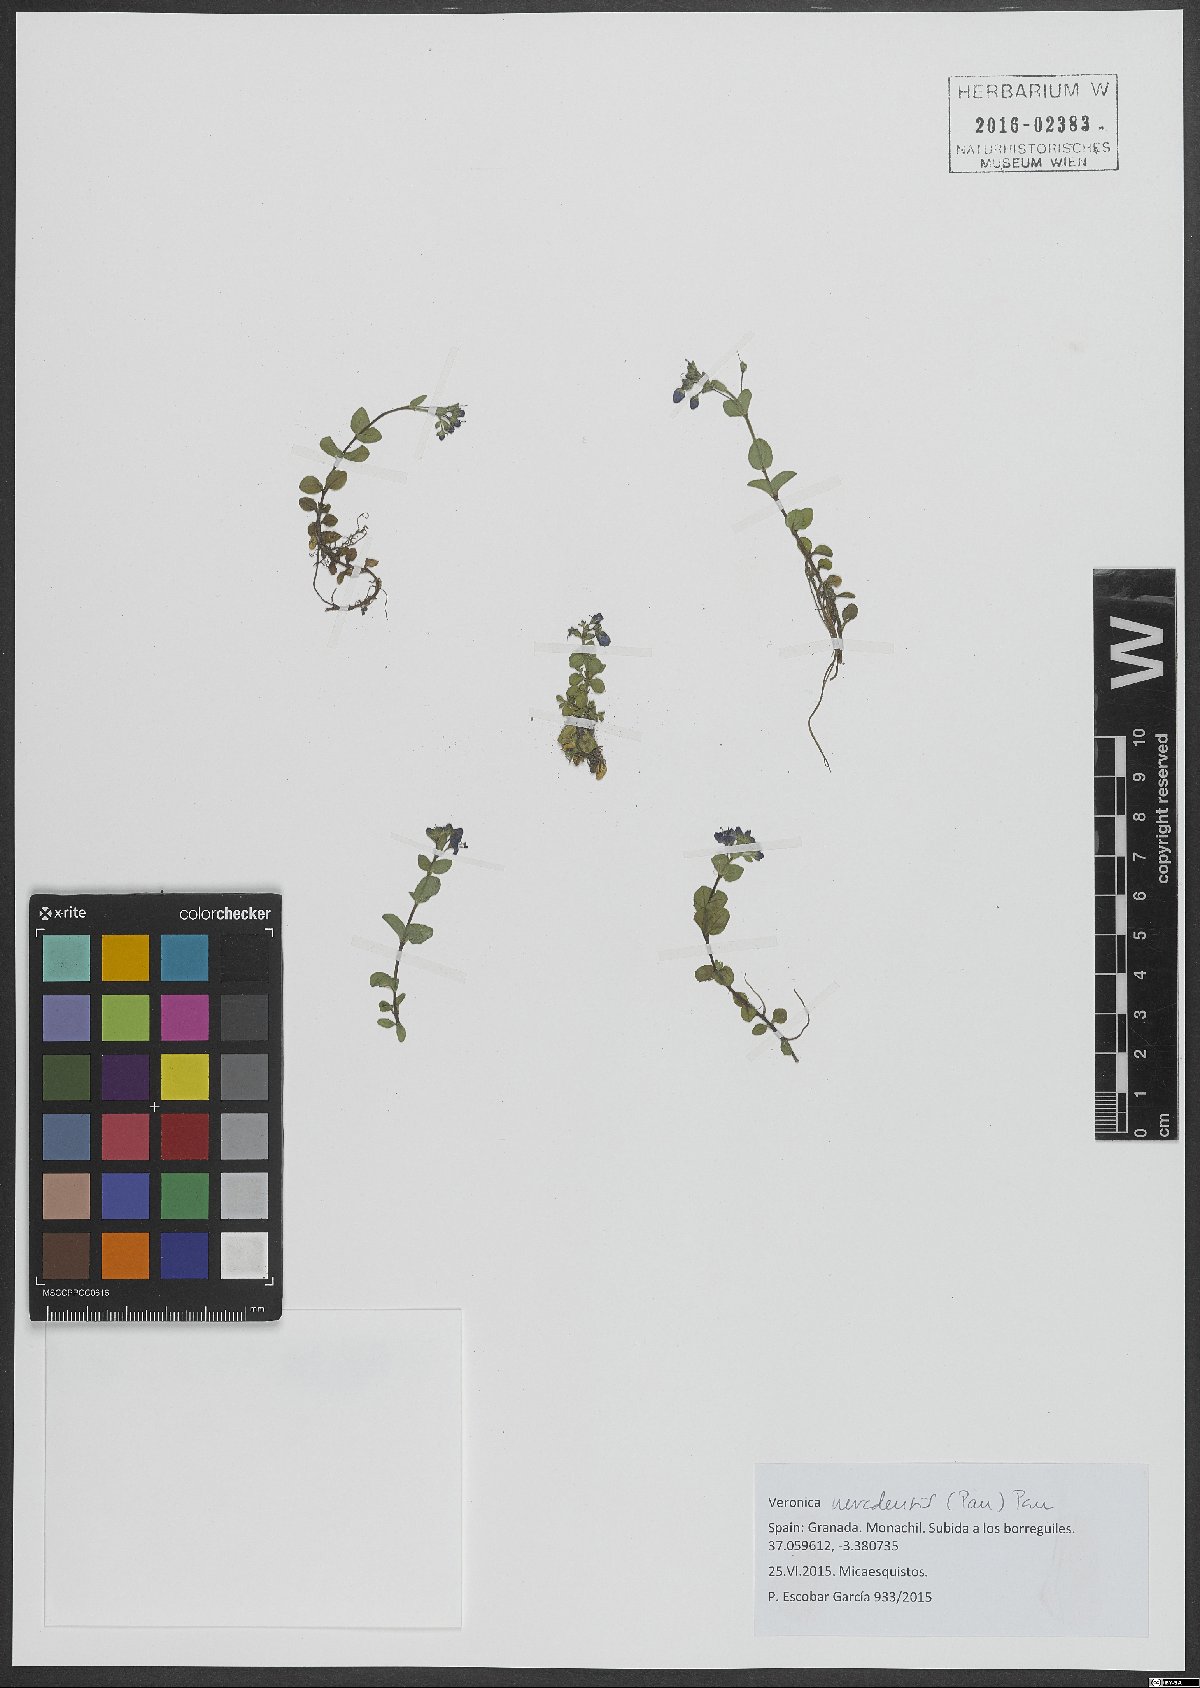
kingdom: Plantae
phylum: Tracheophyta
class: Magnoliopsida
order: Lamiales
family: Plantaginaceae
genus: Veronica
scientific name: Veronica nevadensis
